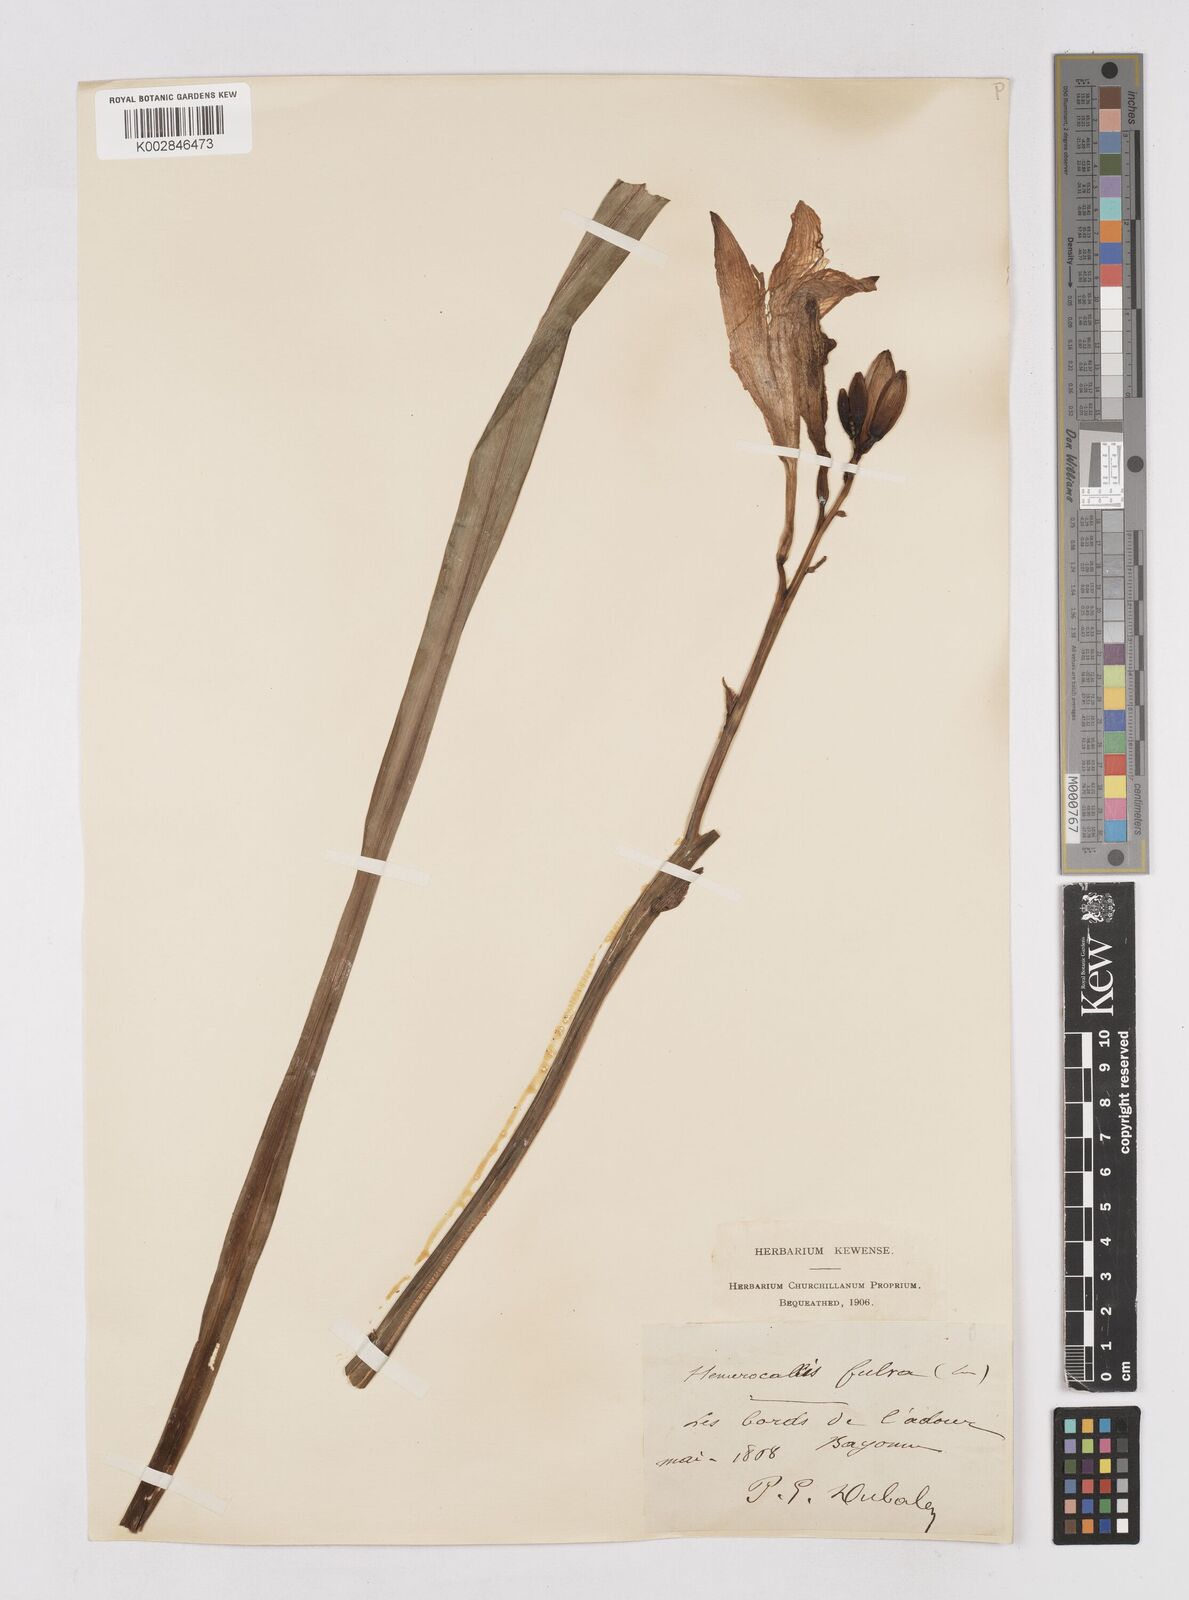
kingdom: Plantae
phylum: Tracheophyta
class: Liliopsida
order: Asparagales
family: Asphodelaceae
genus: Hemerocallis
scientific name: Hemerocallis fulva
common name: Orange day-lily
